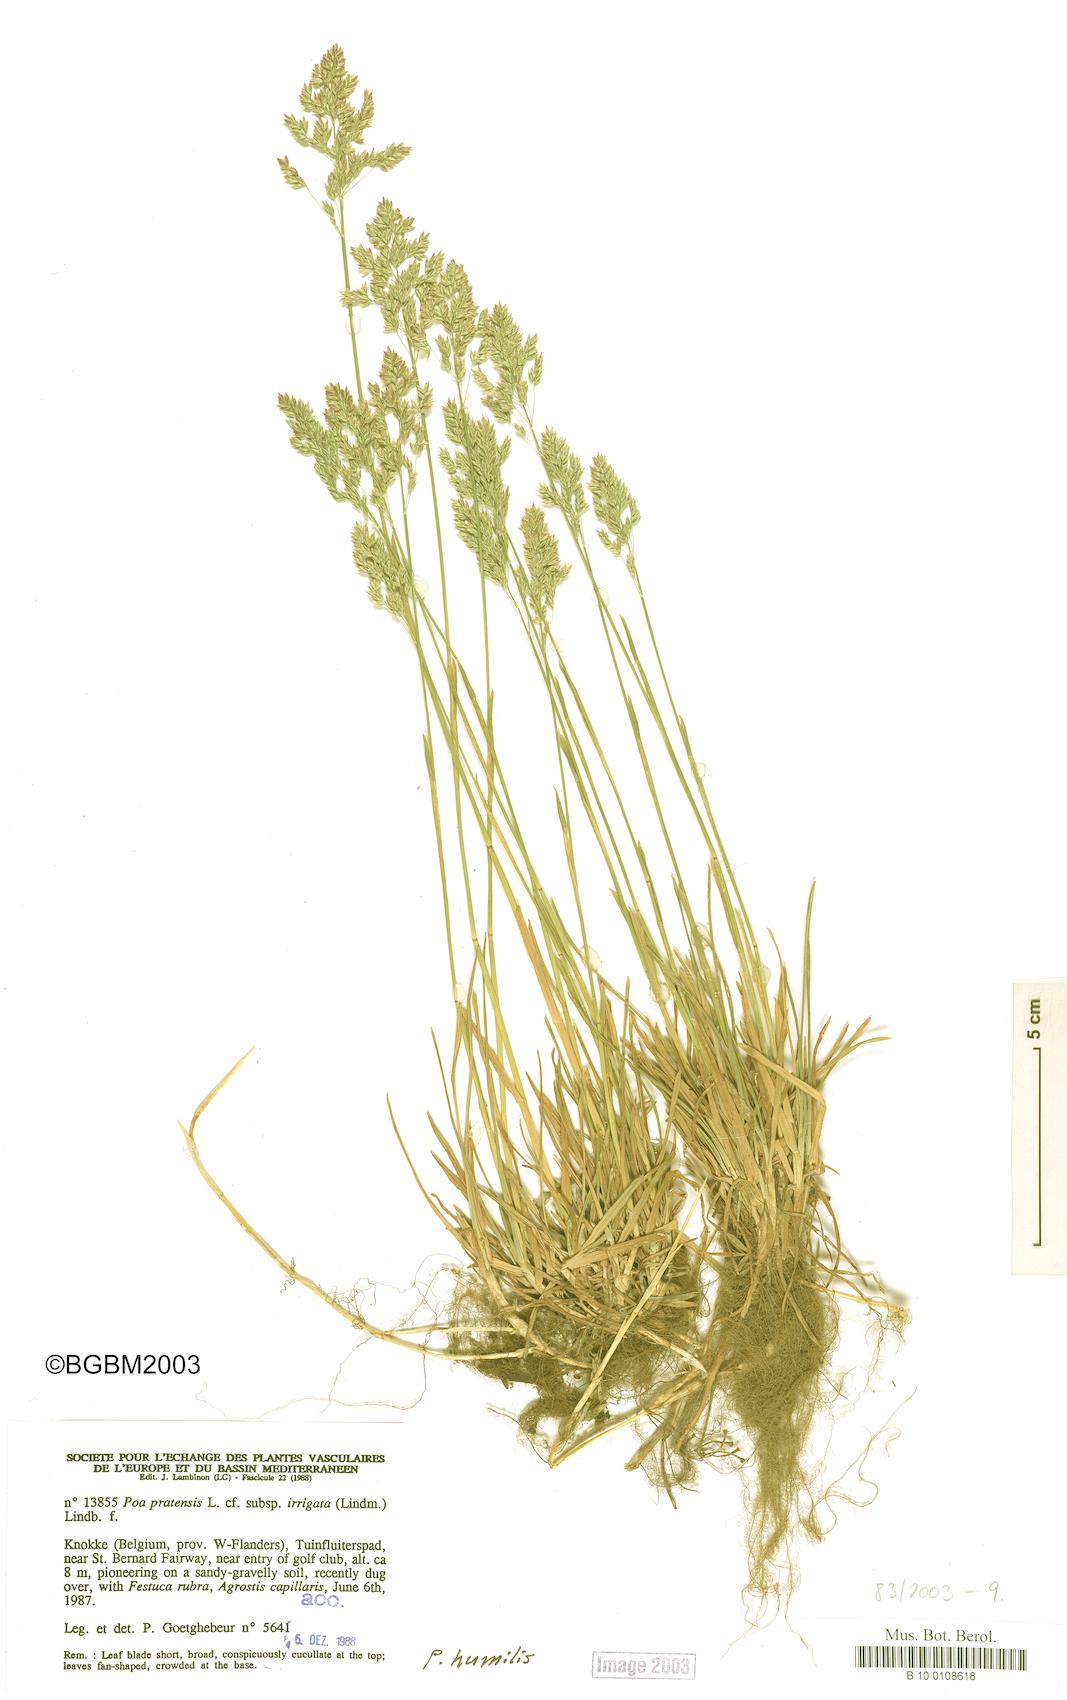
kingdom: Plantae
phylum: Tracheophyta
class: Liliopsida
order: Poales
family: Poaceae
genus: Poa
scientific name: Poa humilis
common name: Spreading meadow-grass
